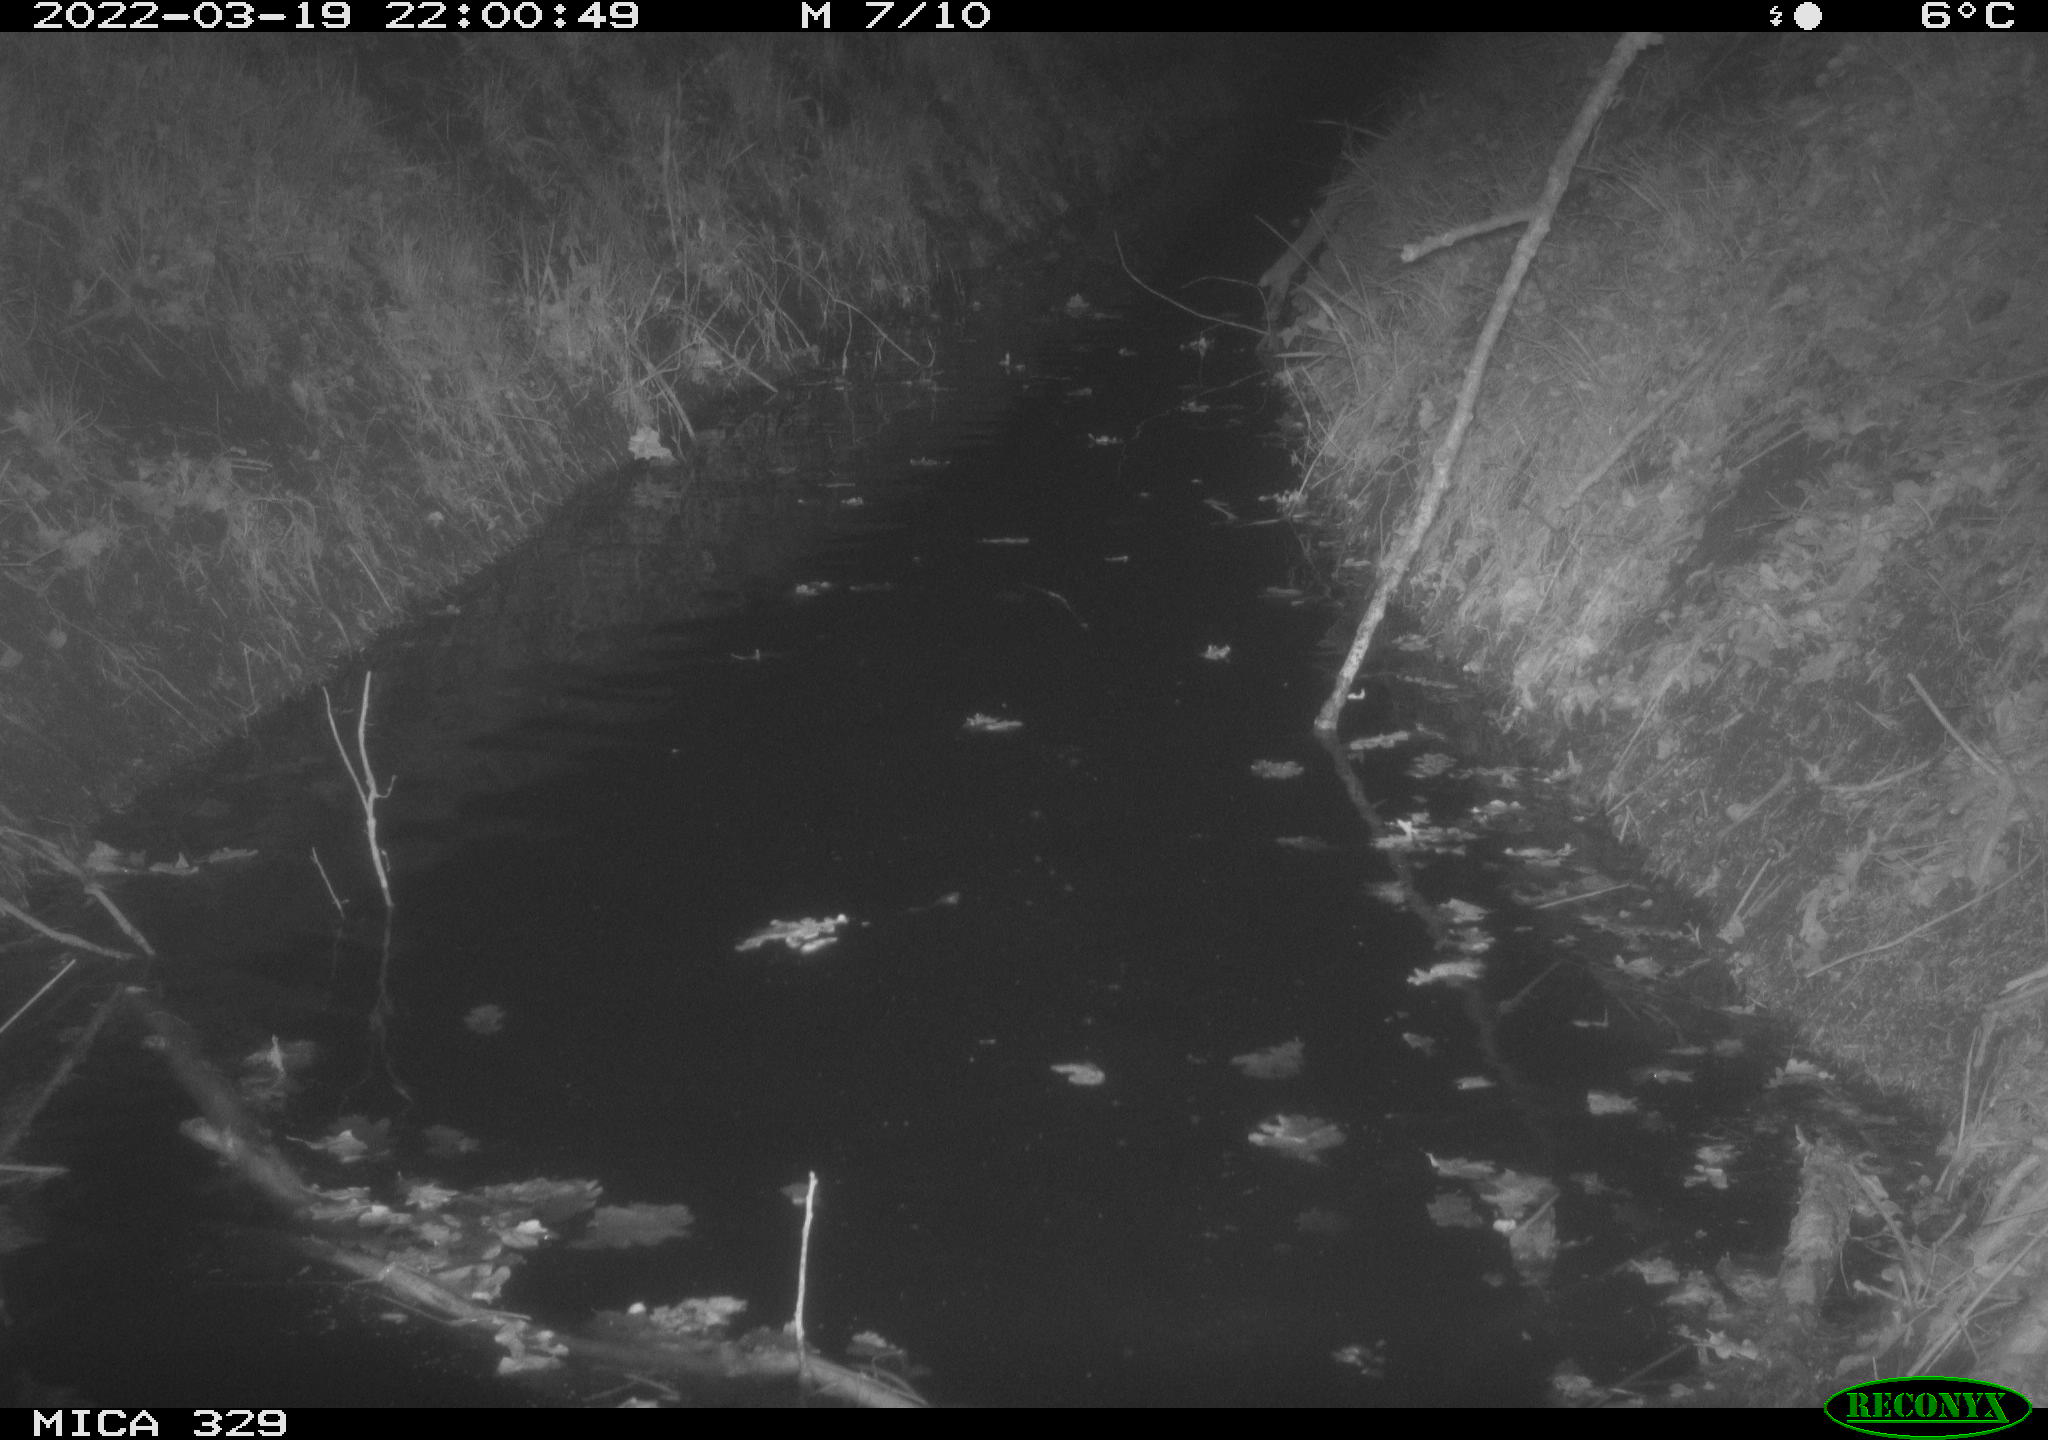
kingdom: Animalia
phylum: Chordata
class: Mammalia
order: Rodentia
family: Cricetidae
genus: Ondatra
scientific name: Ondatra zibethicus
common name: Muskrat
